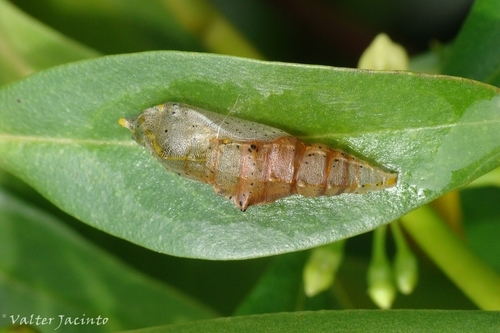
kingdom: Animalia
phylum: Arthropoda
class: Insecta
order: Lepidoptera
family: Pieridae
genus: Pieris
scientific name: Pieris
